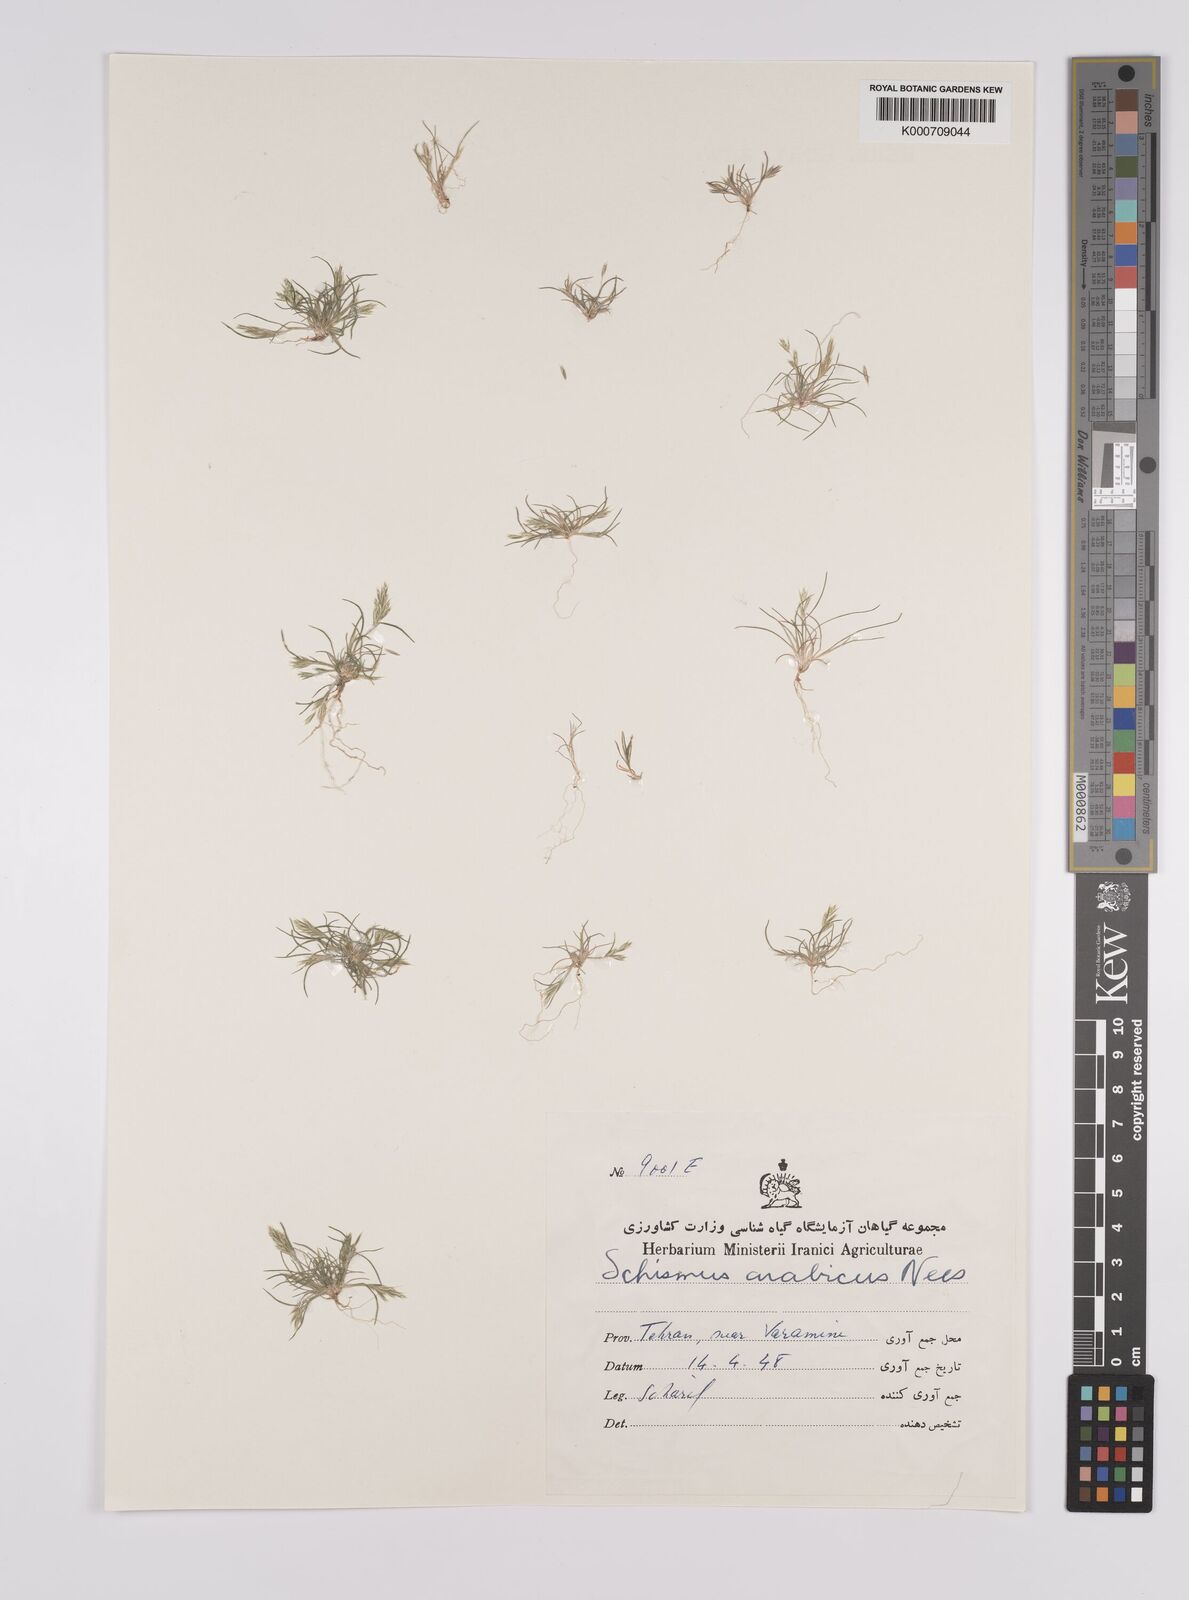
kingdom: Plantae
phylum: Tracheophyta
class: Liliopsida
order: Poales
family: Poaceae
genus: Schismus
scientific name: Schismus arabicus
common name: Arabian schismus
